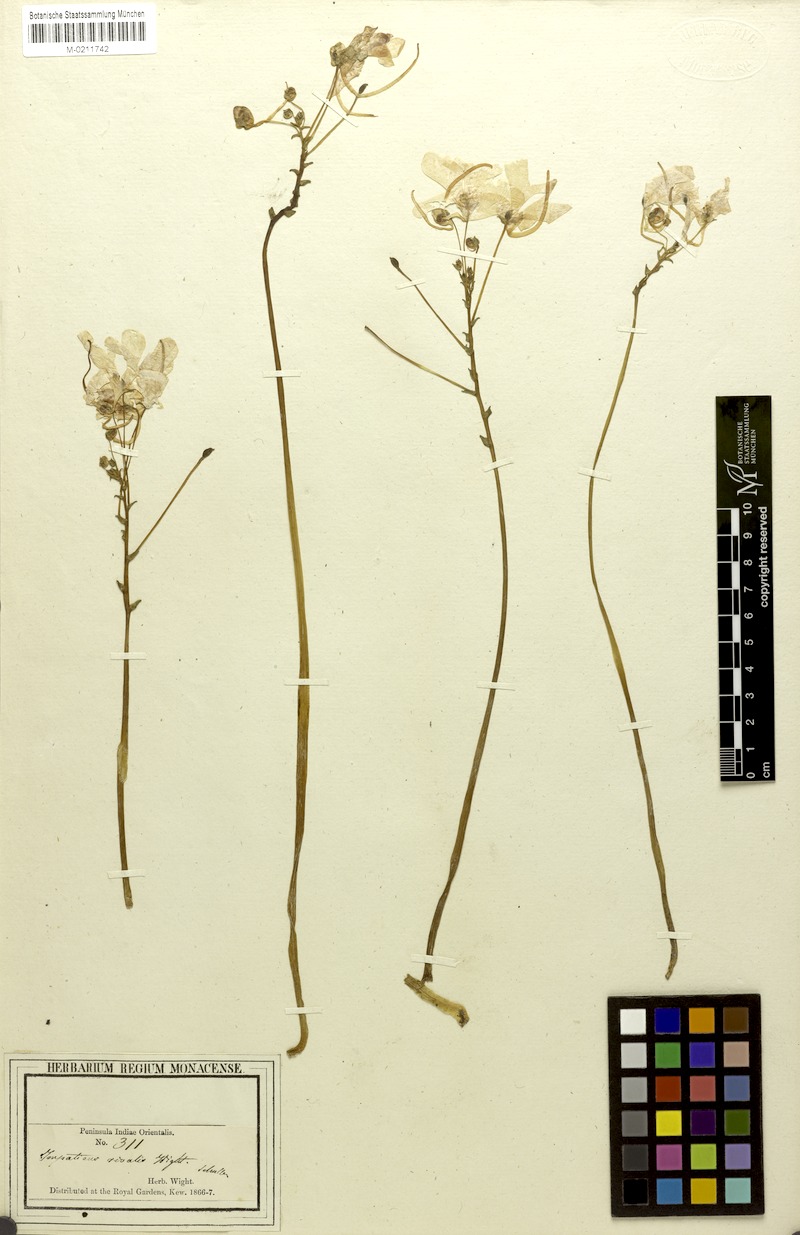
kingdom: Plantae
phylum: Tracheophyta
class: Magnoliopsida
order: Ericales
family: Balsaminaceae
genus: Impatiens
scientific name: Impatiens scapiflora
